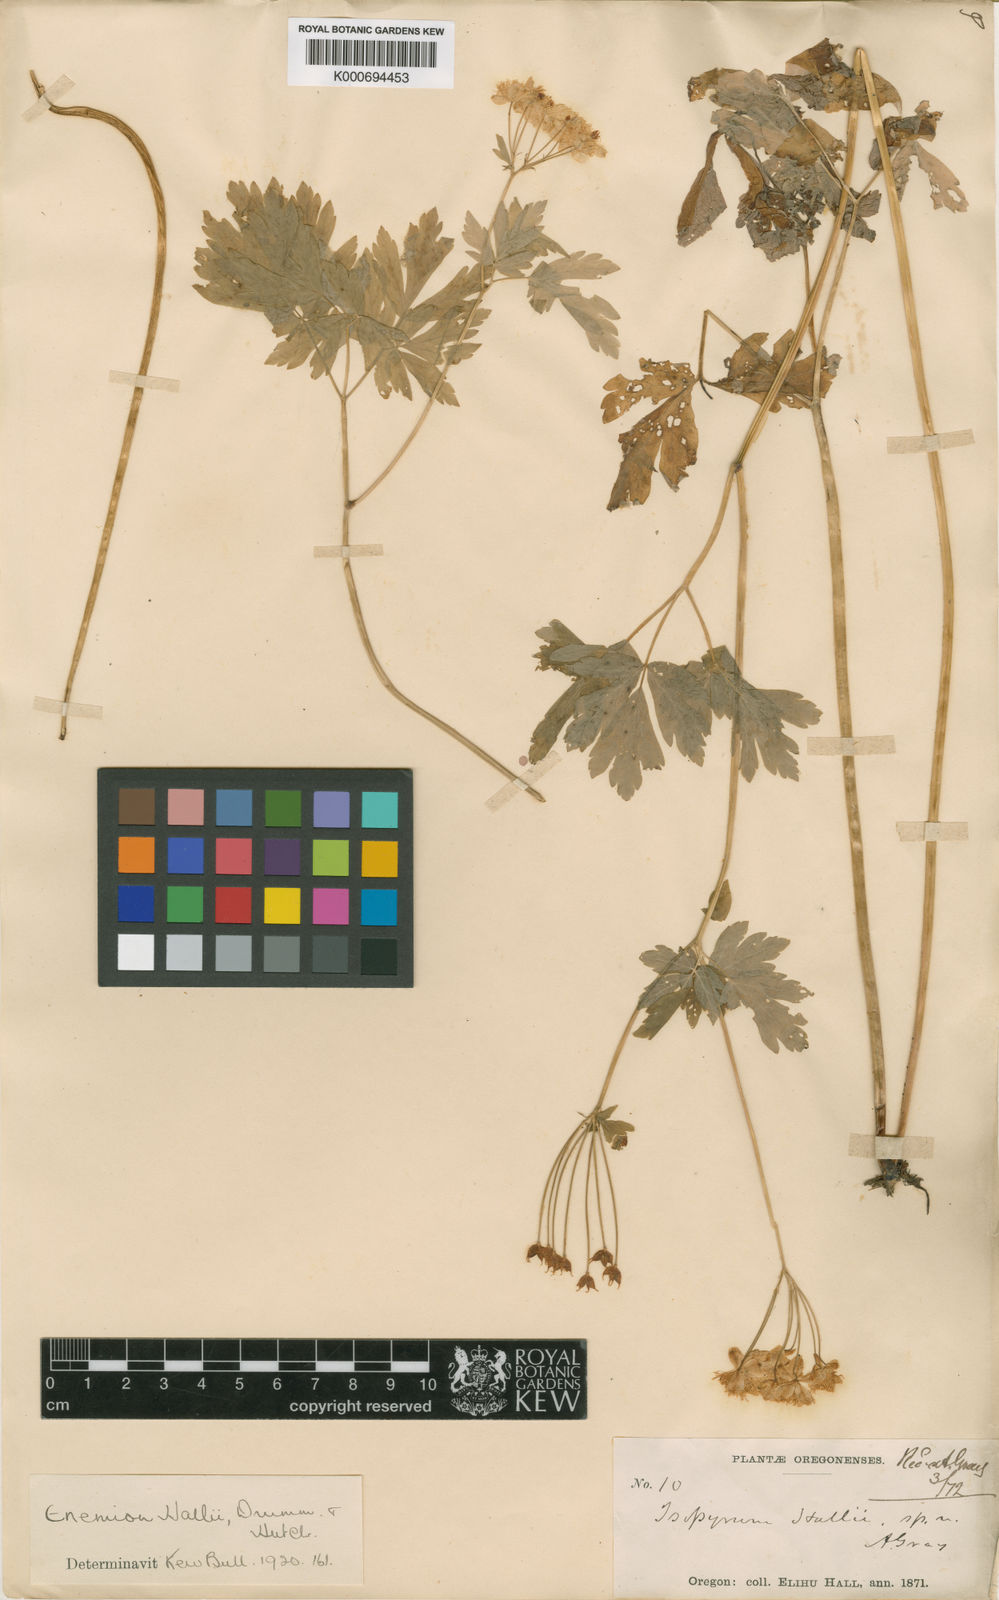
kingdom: Plantae
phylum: Tracheophyta
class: Magnoliopsida
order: Ranunculales
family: Ranunculaceae
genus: Enemion
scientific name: Enemion hallii
